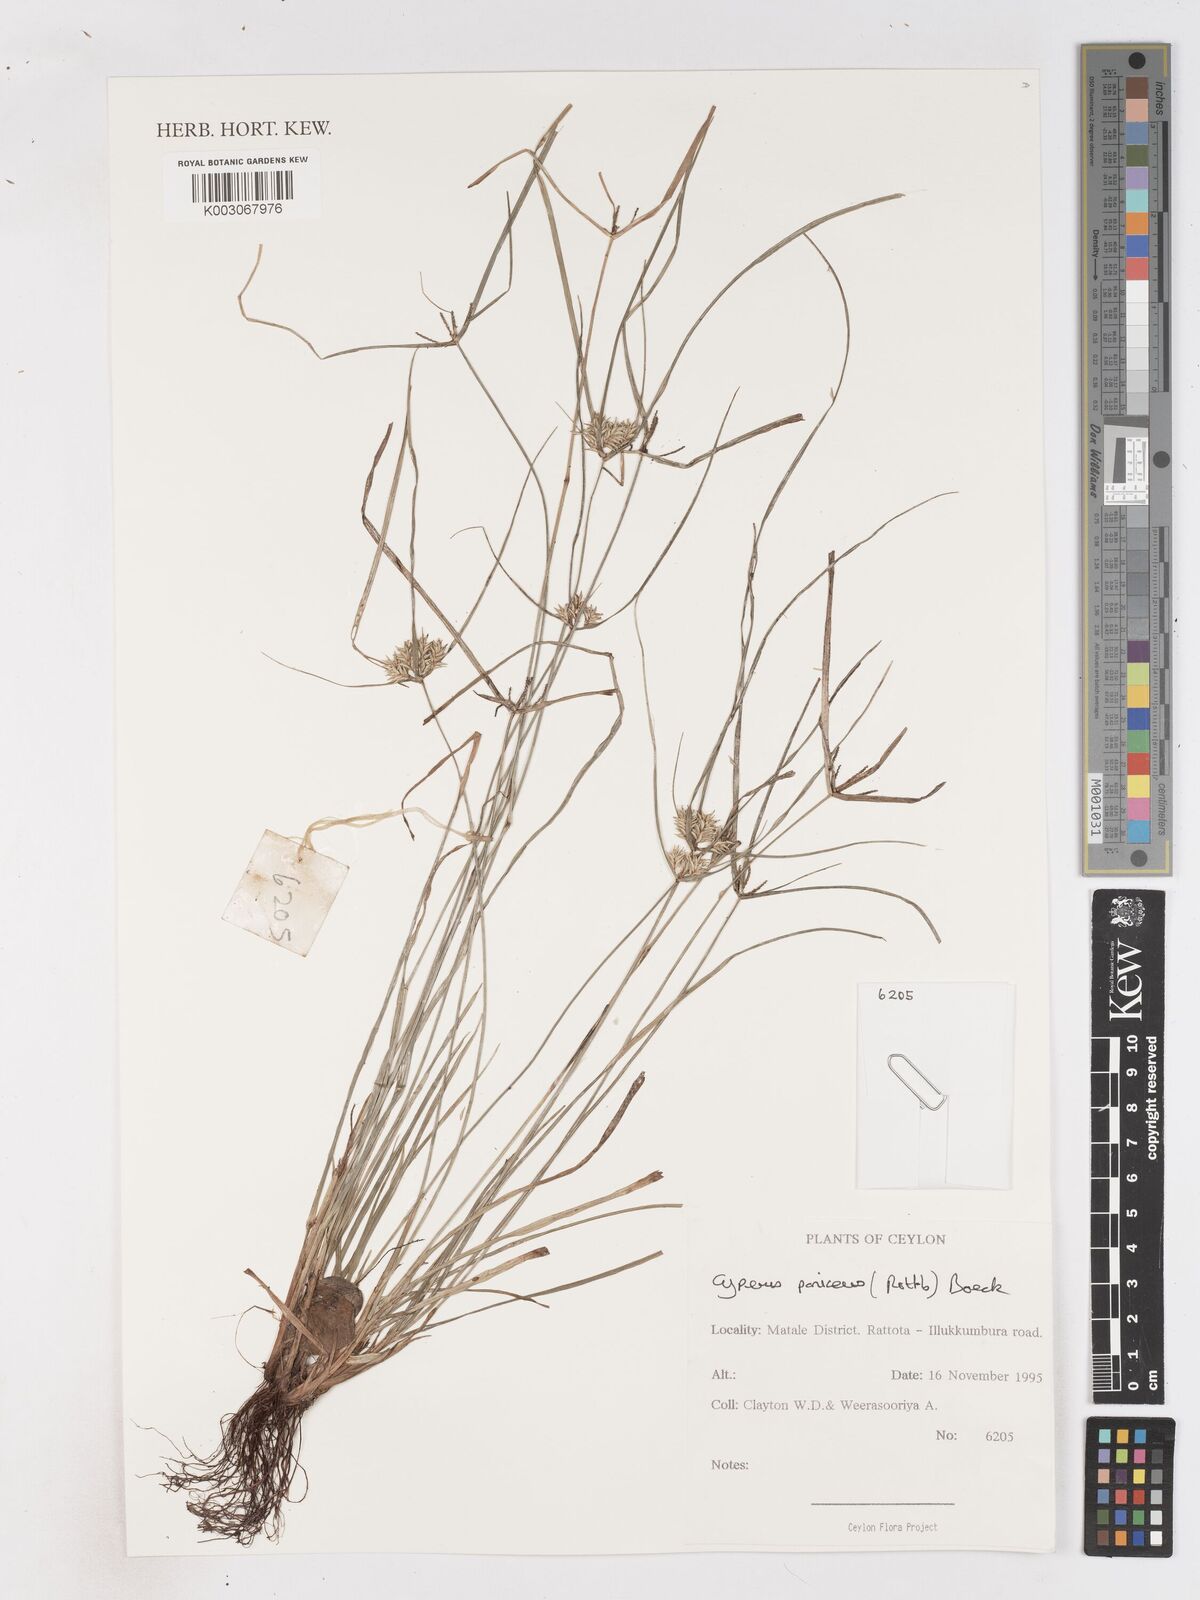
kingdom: Plantae
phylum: Tracheophyta
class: Liliopsida
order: Poales
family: Cyperaceae
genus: Cyperus
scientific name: Cyperus paniceus
